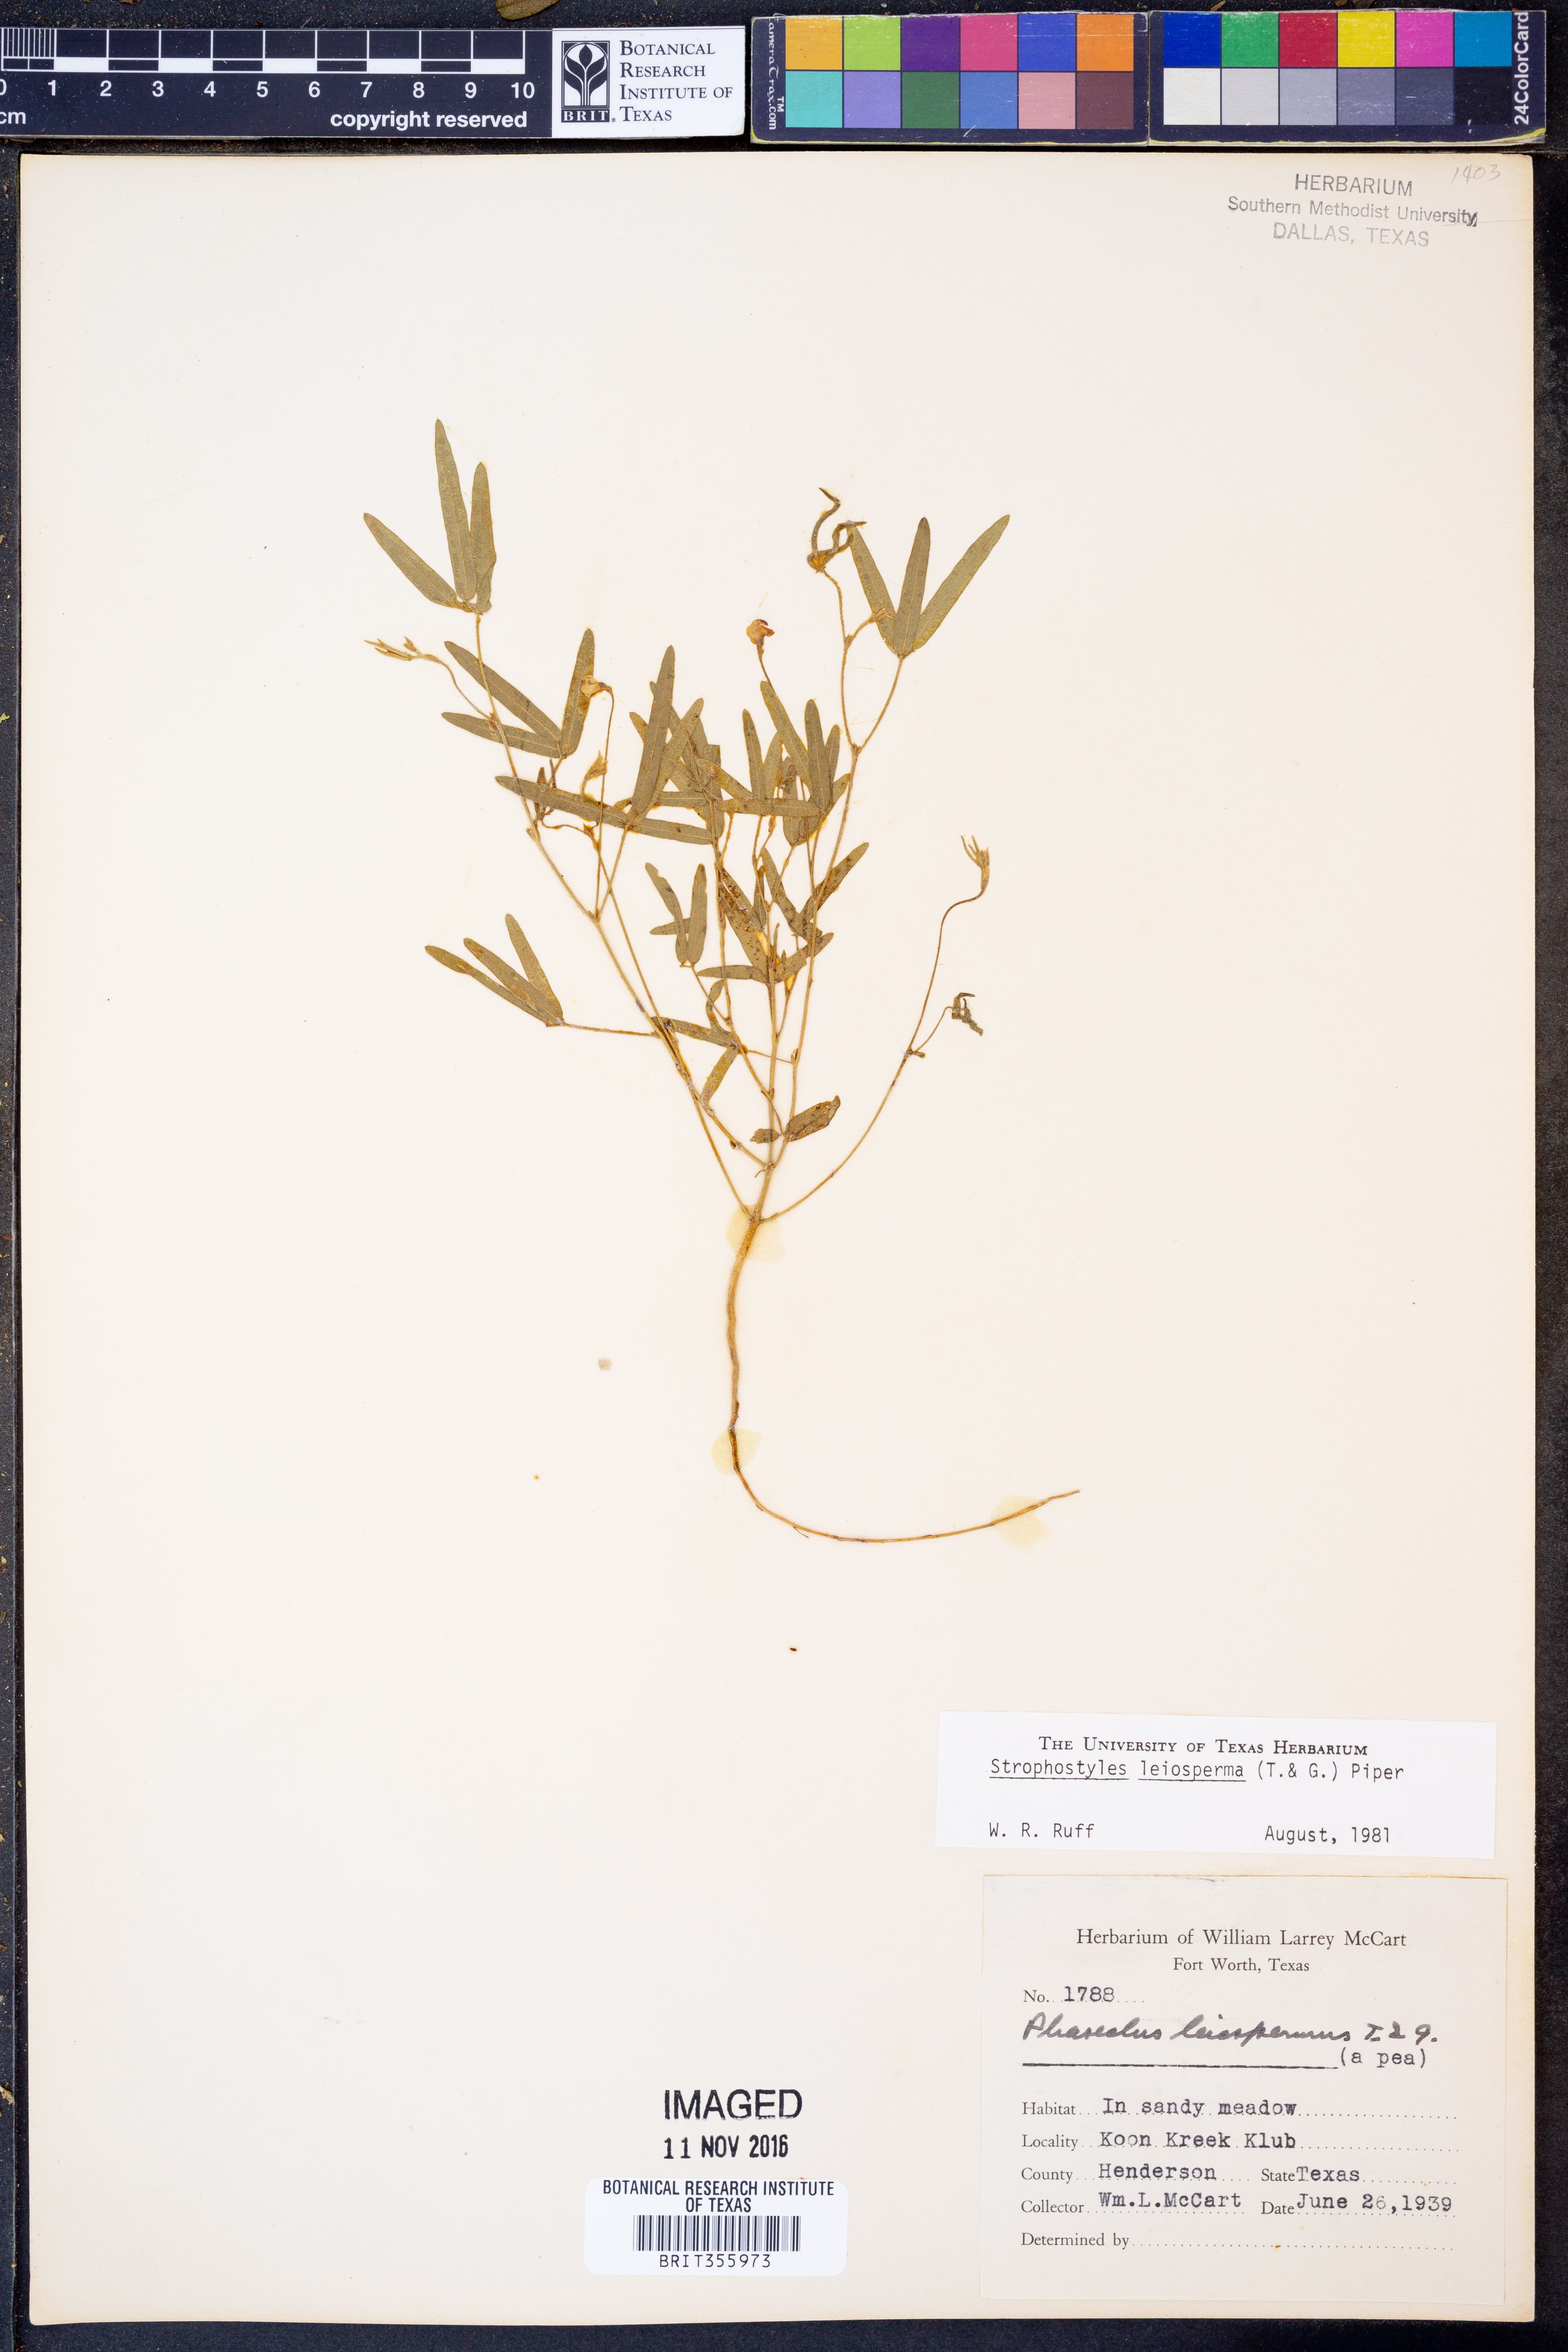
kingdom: Plantae
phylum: Tracheophyta
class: Magnoliopsida
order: Fabales
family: Fabaceae
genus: Strophostyles
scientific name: Strophostyles leiosperma
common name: Smooth-seed wild bean
